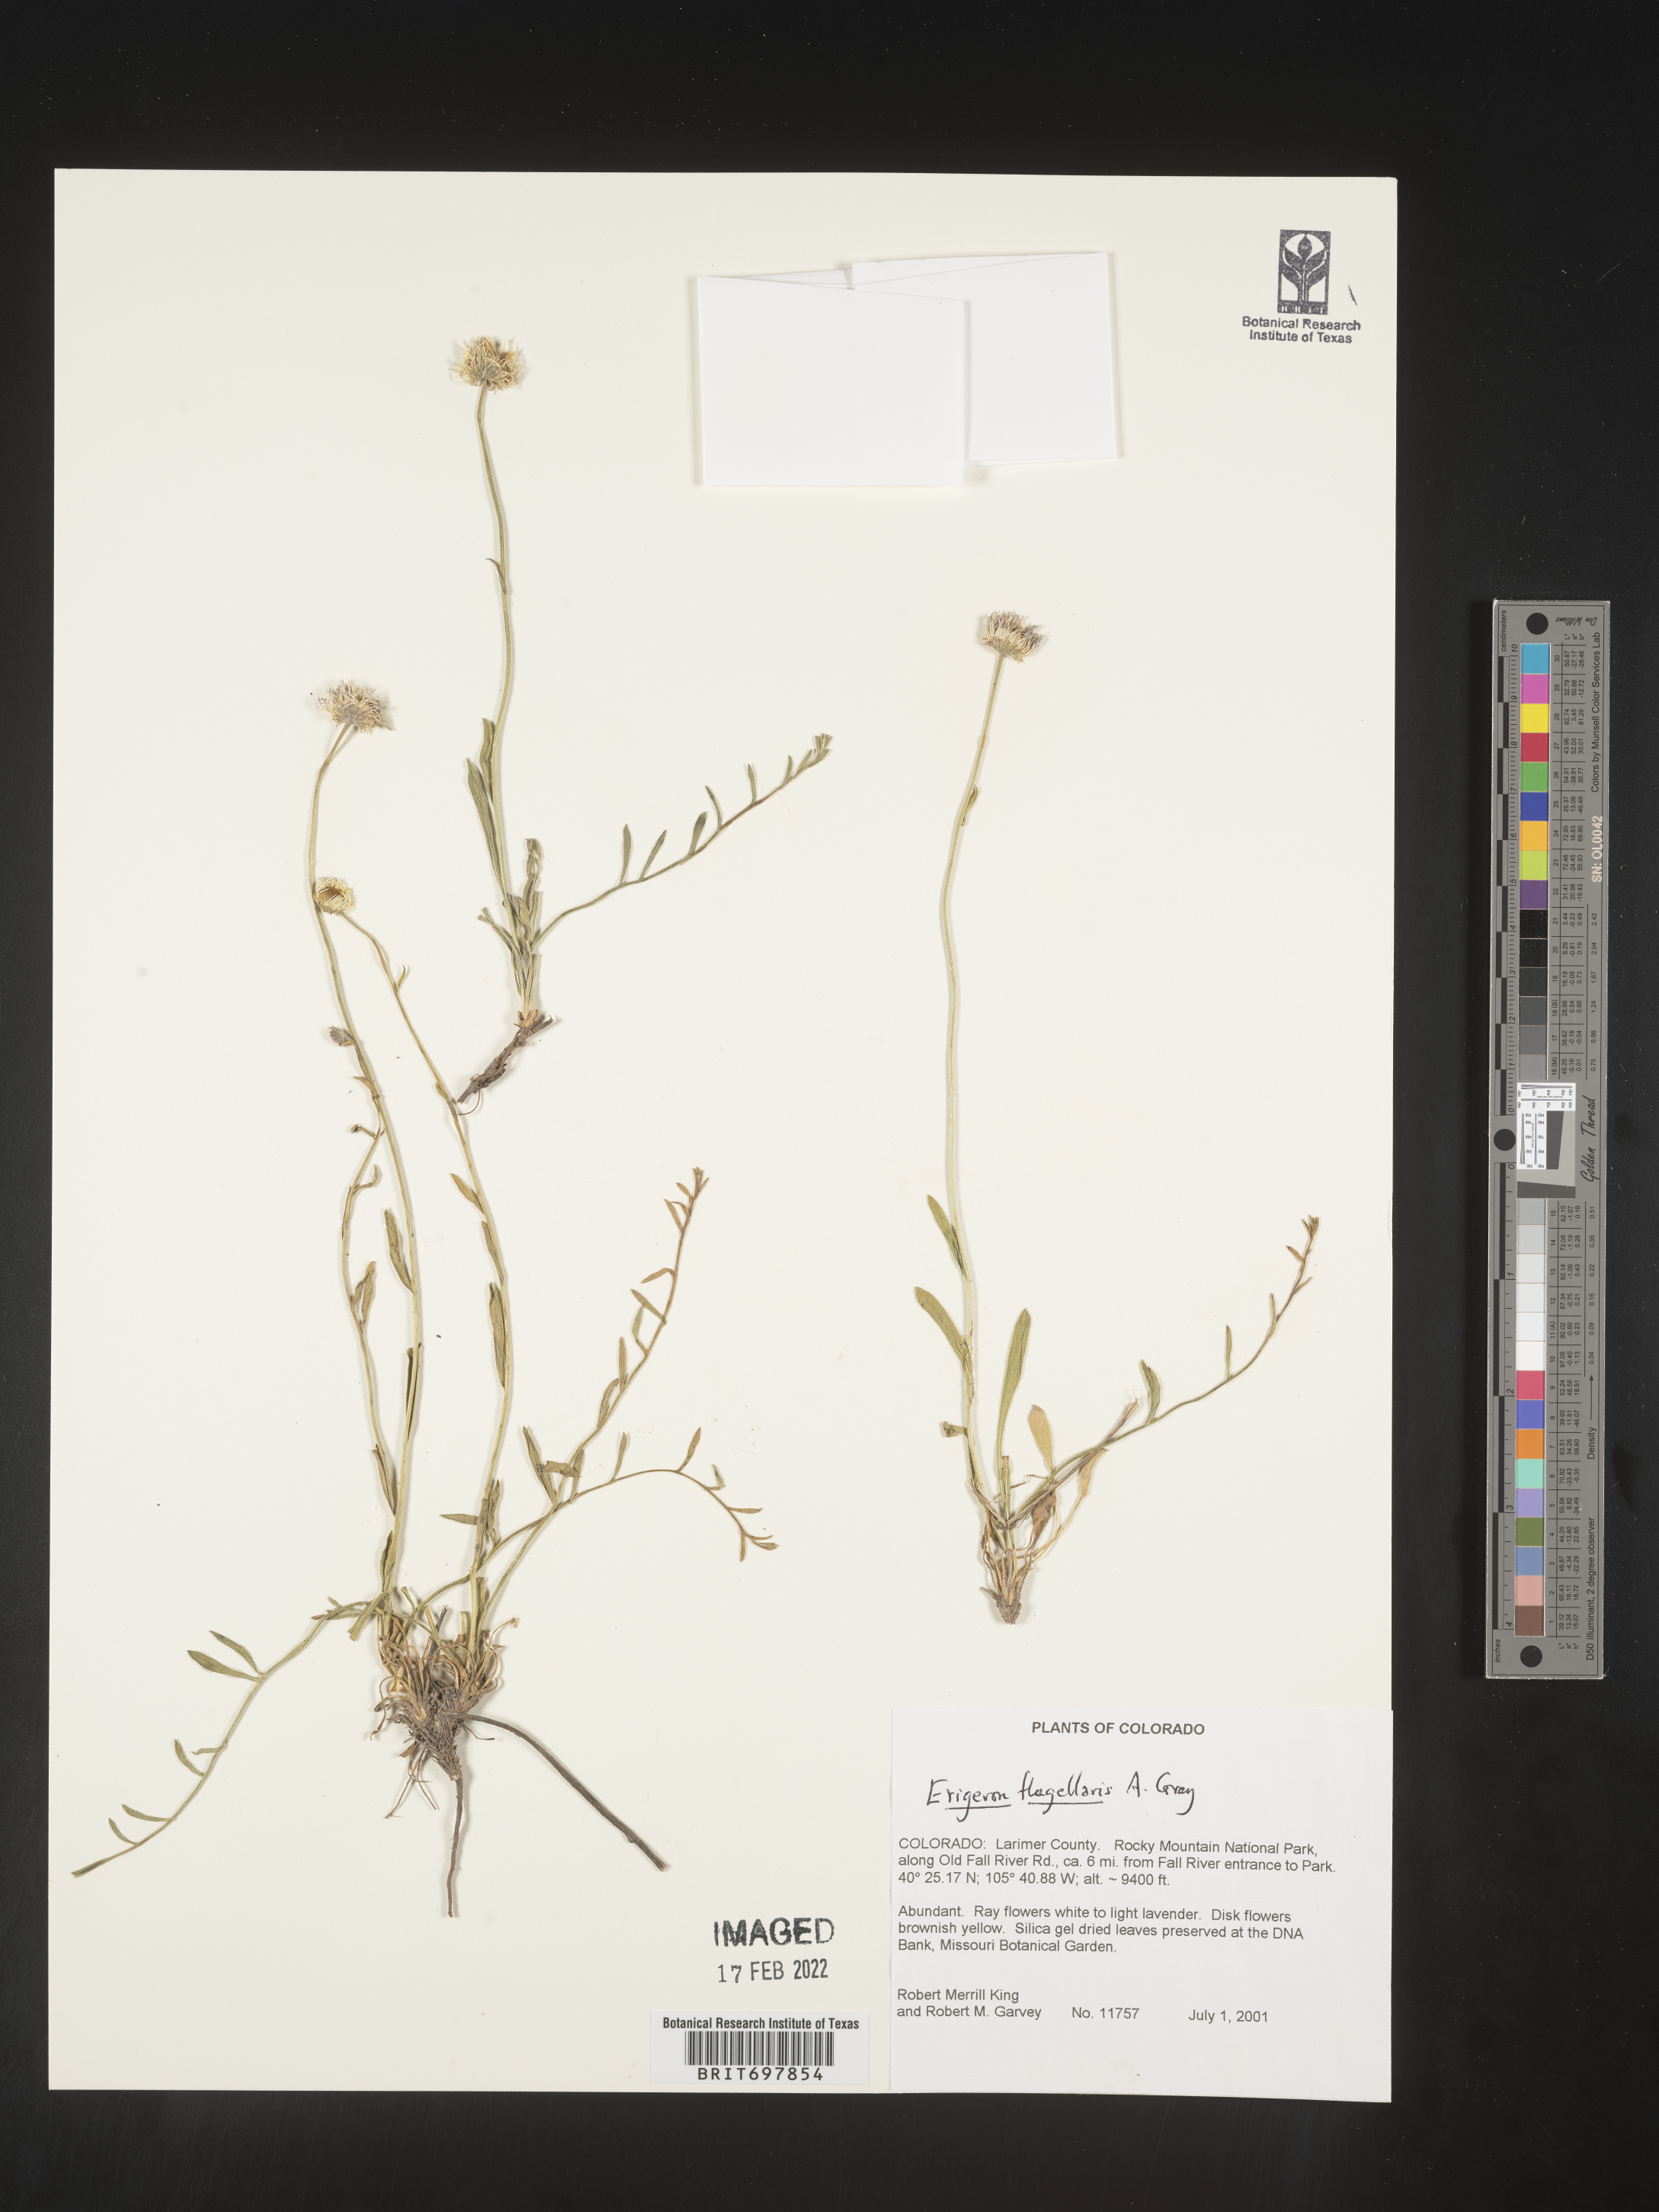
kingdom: Plantae
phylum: Tracheophyta
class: Magnoliopsida
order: Asterales
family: Asteraceae
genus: Erigeron
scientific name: Erigeron flagellaris
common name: Running fleabane
